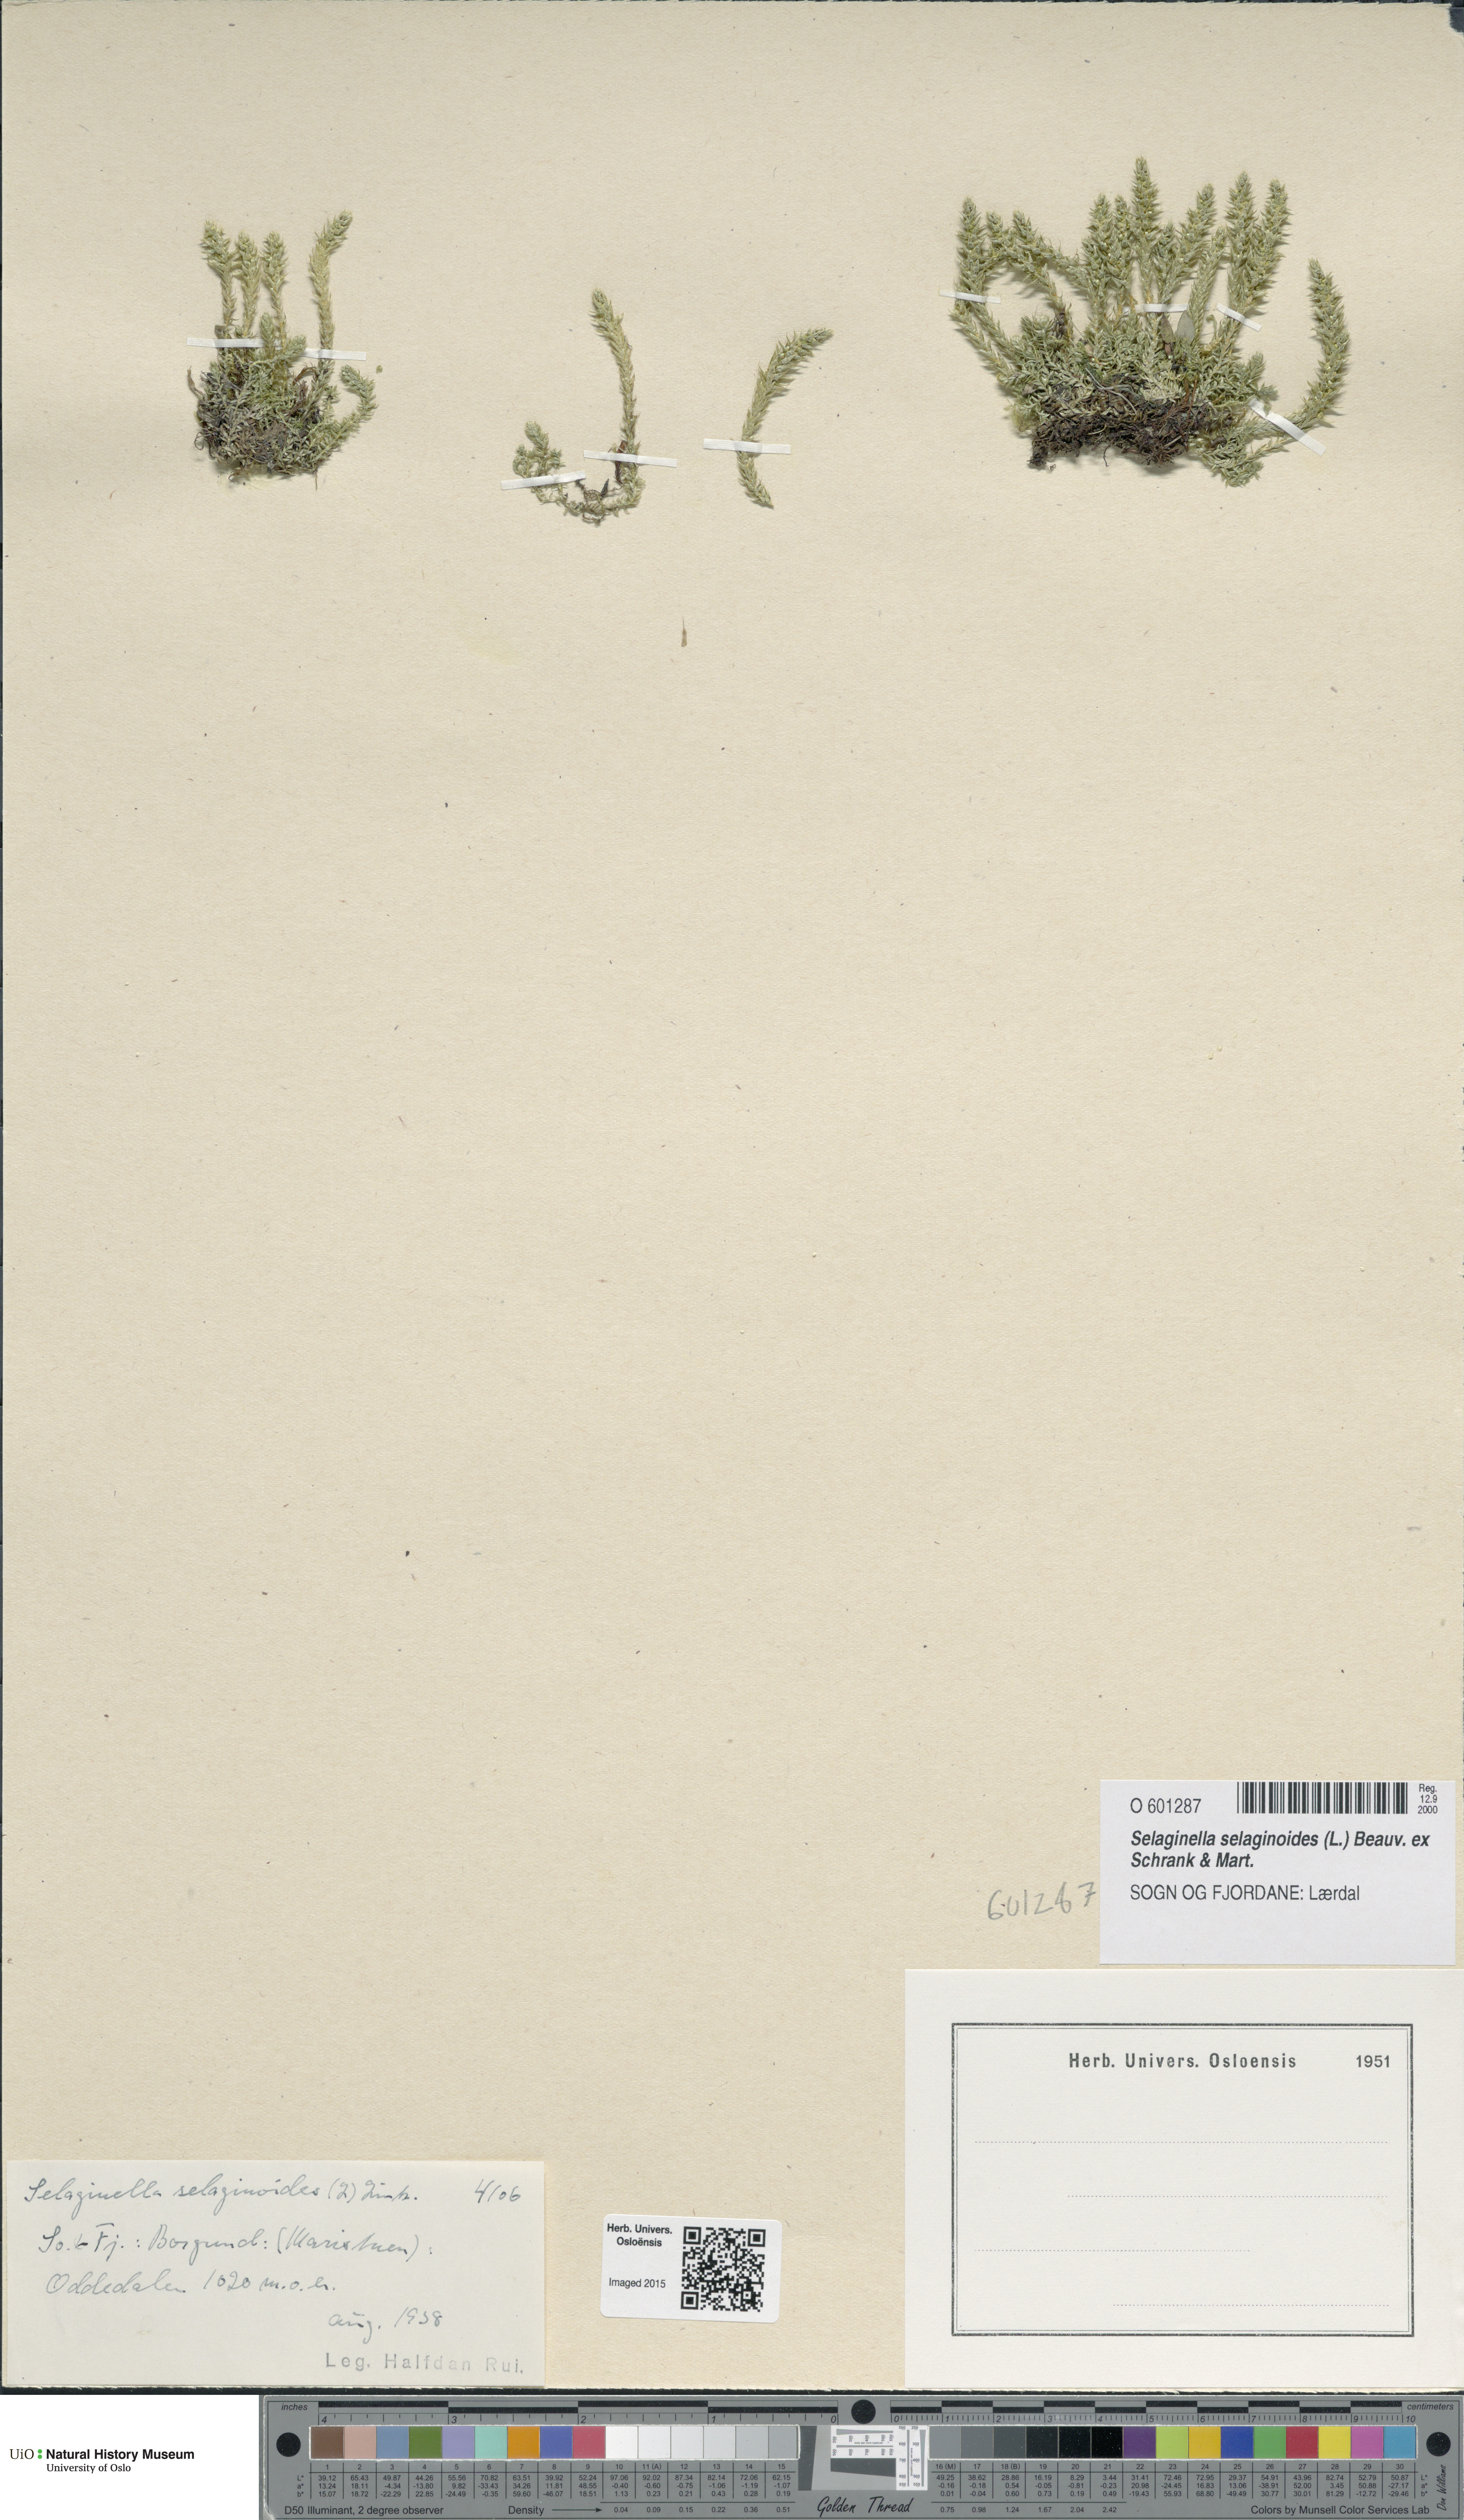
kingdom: Plantae
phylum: Tracheophyta
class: Lycopodiopsida
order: Selaginellales
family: Selaginellaceae
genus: Selaginella
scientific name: Selaginella selaginoides
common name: Prickly mountain-moss
